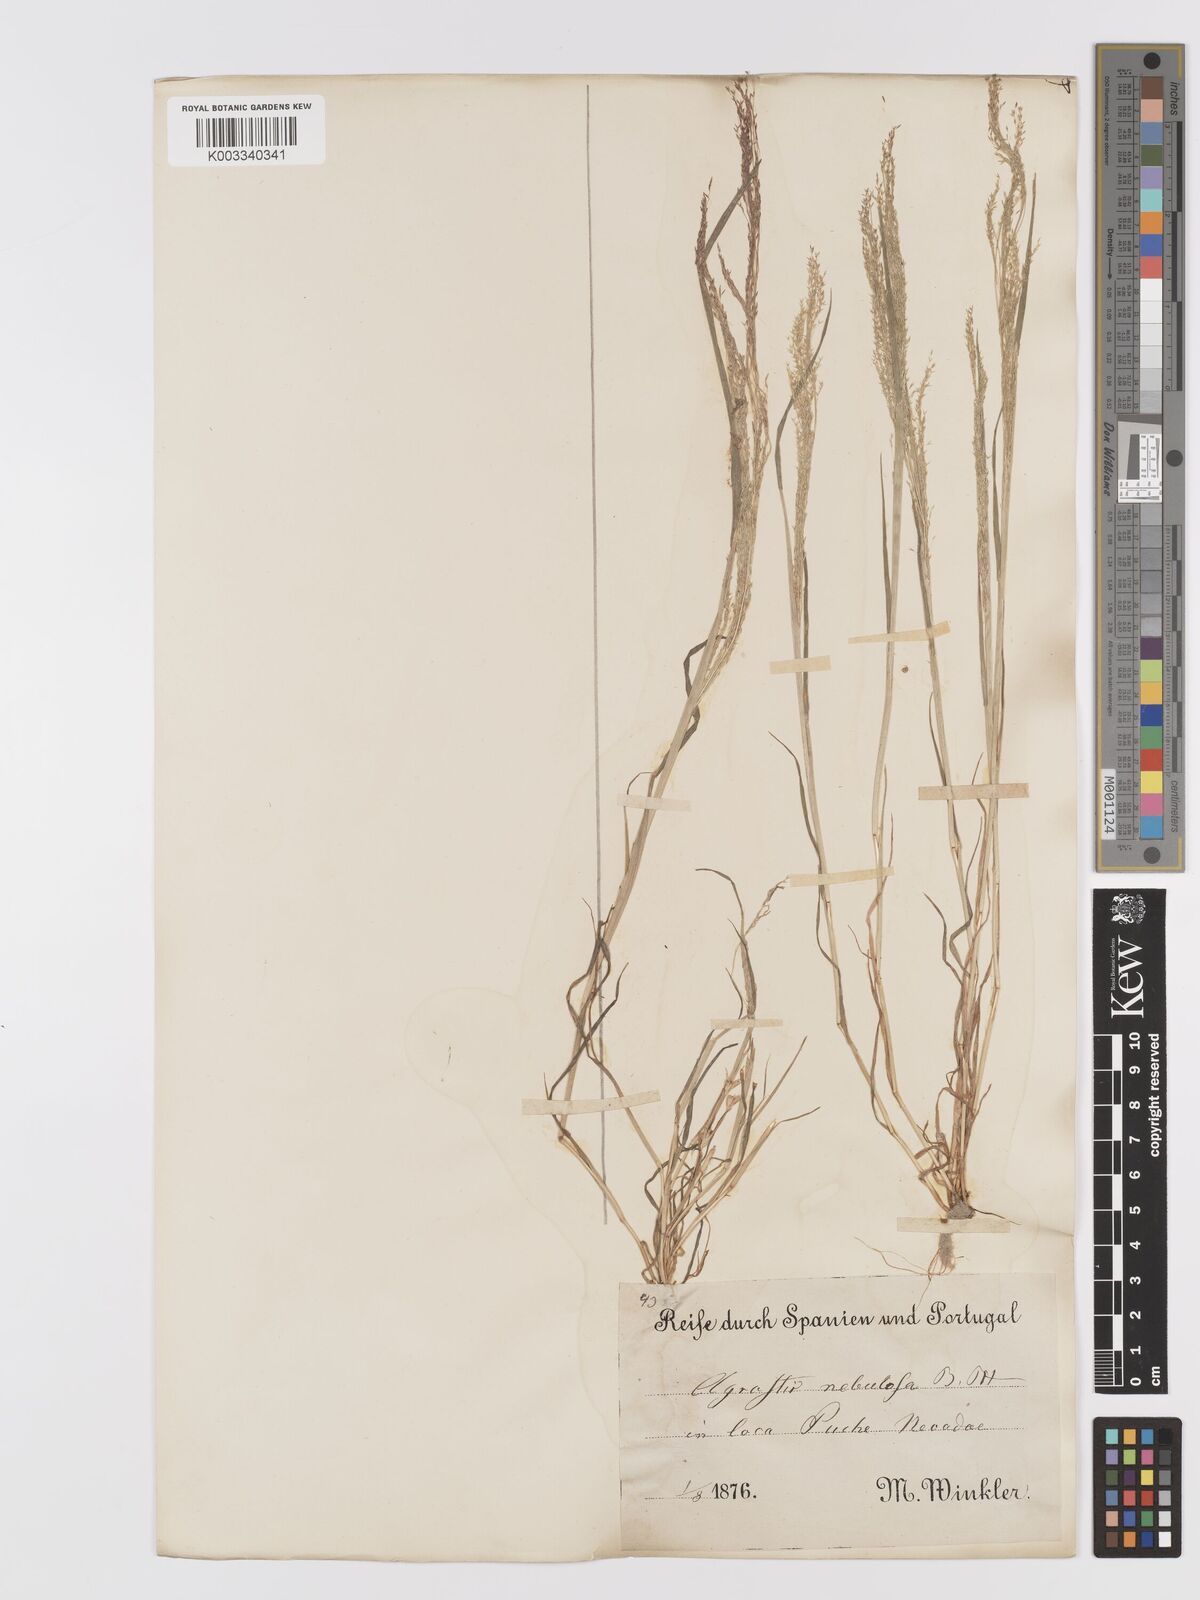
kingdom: Plantae
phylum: Tracheophyta
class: Liliopsida
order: Poales
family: Poaceae
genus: Agrostis
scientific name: Agrostis nebulosa
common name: Cloud grass
